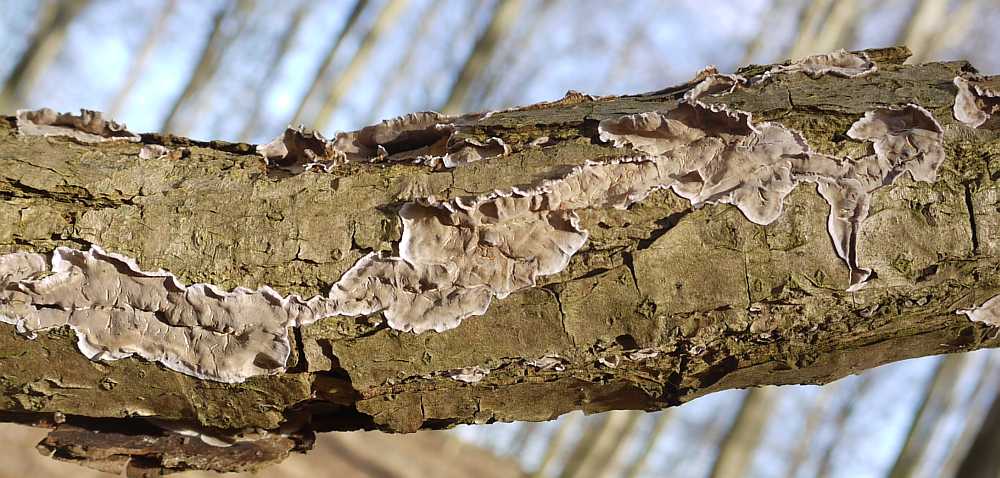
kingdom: Fungi
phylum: Basidiomycota
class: Agaricomycetes
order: Russulales
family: Stereaceae
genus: Stereum
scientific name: Stereum gausapatum
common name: tynd lædersvamp
